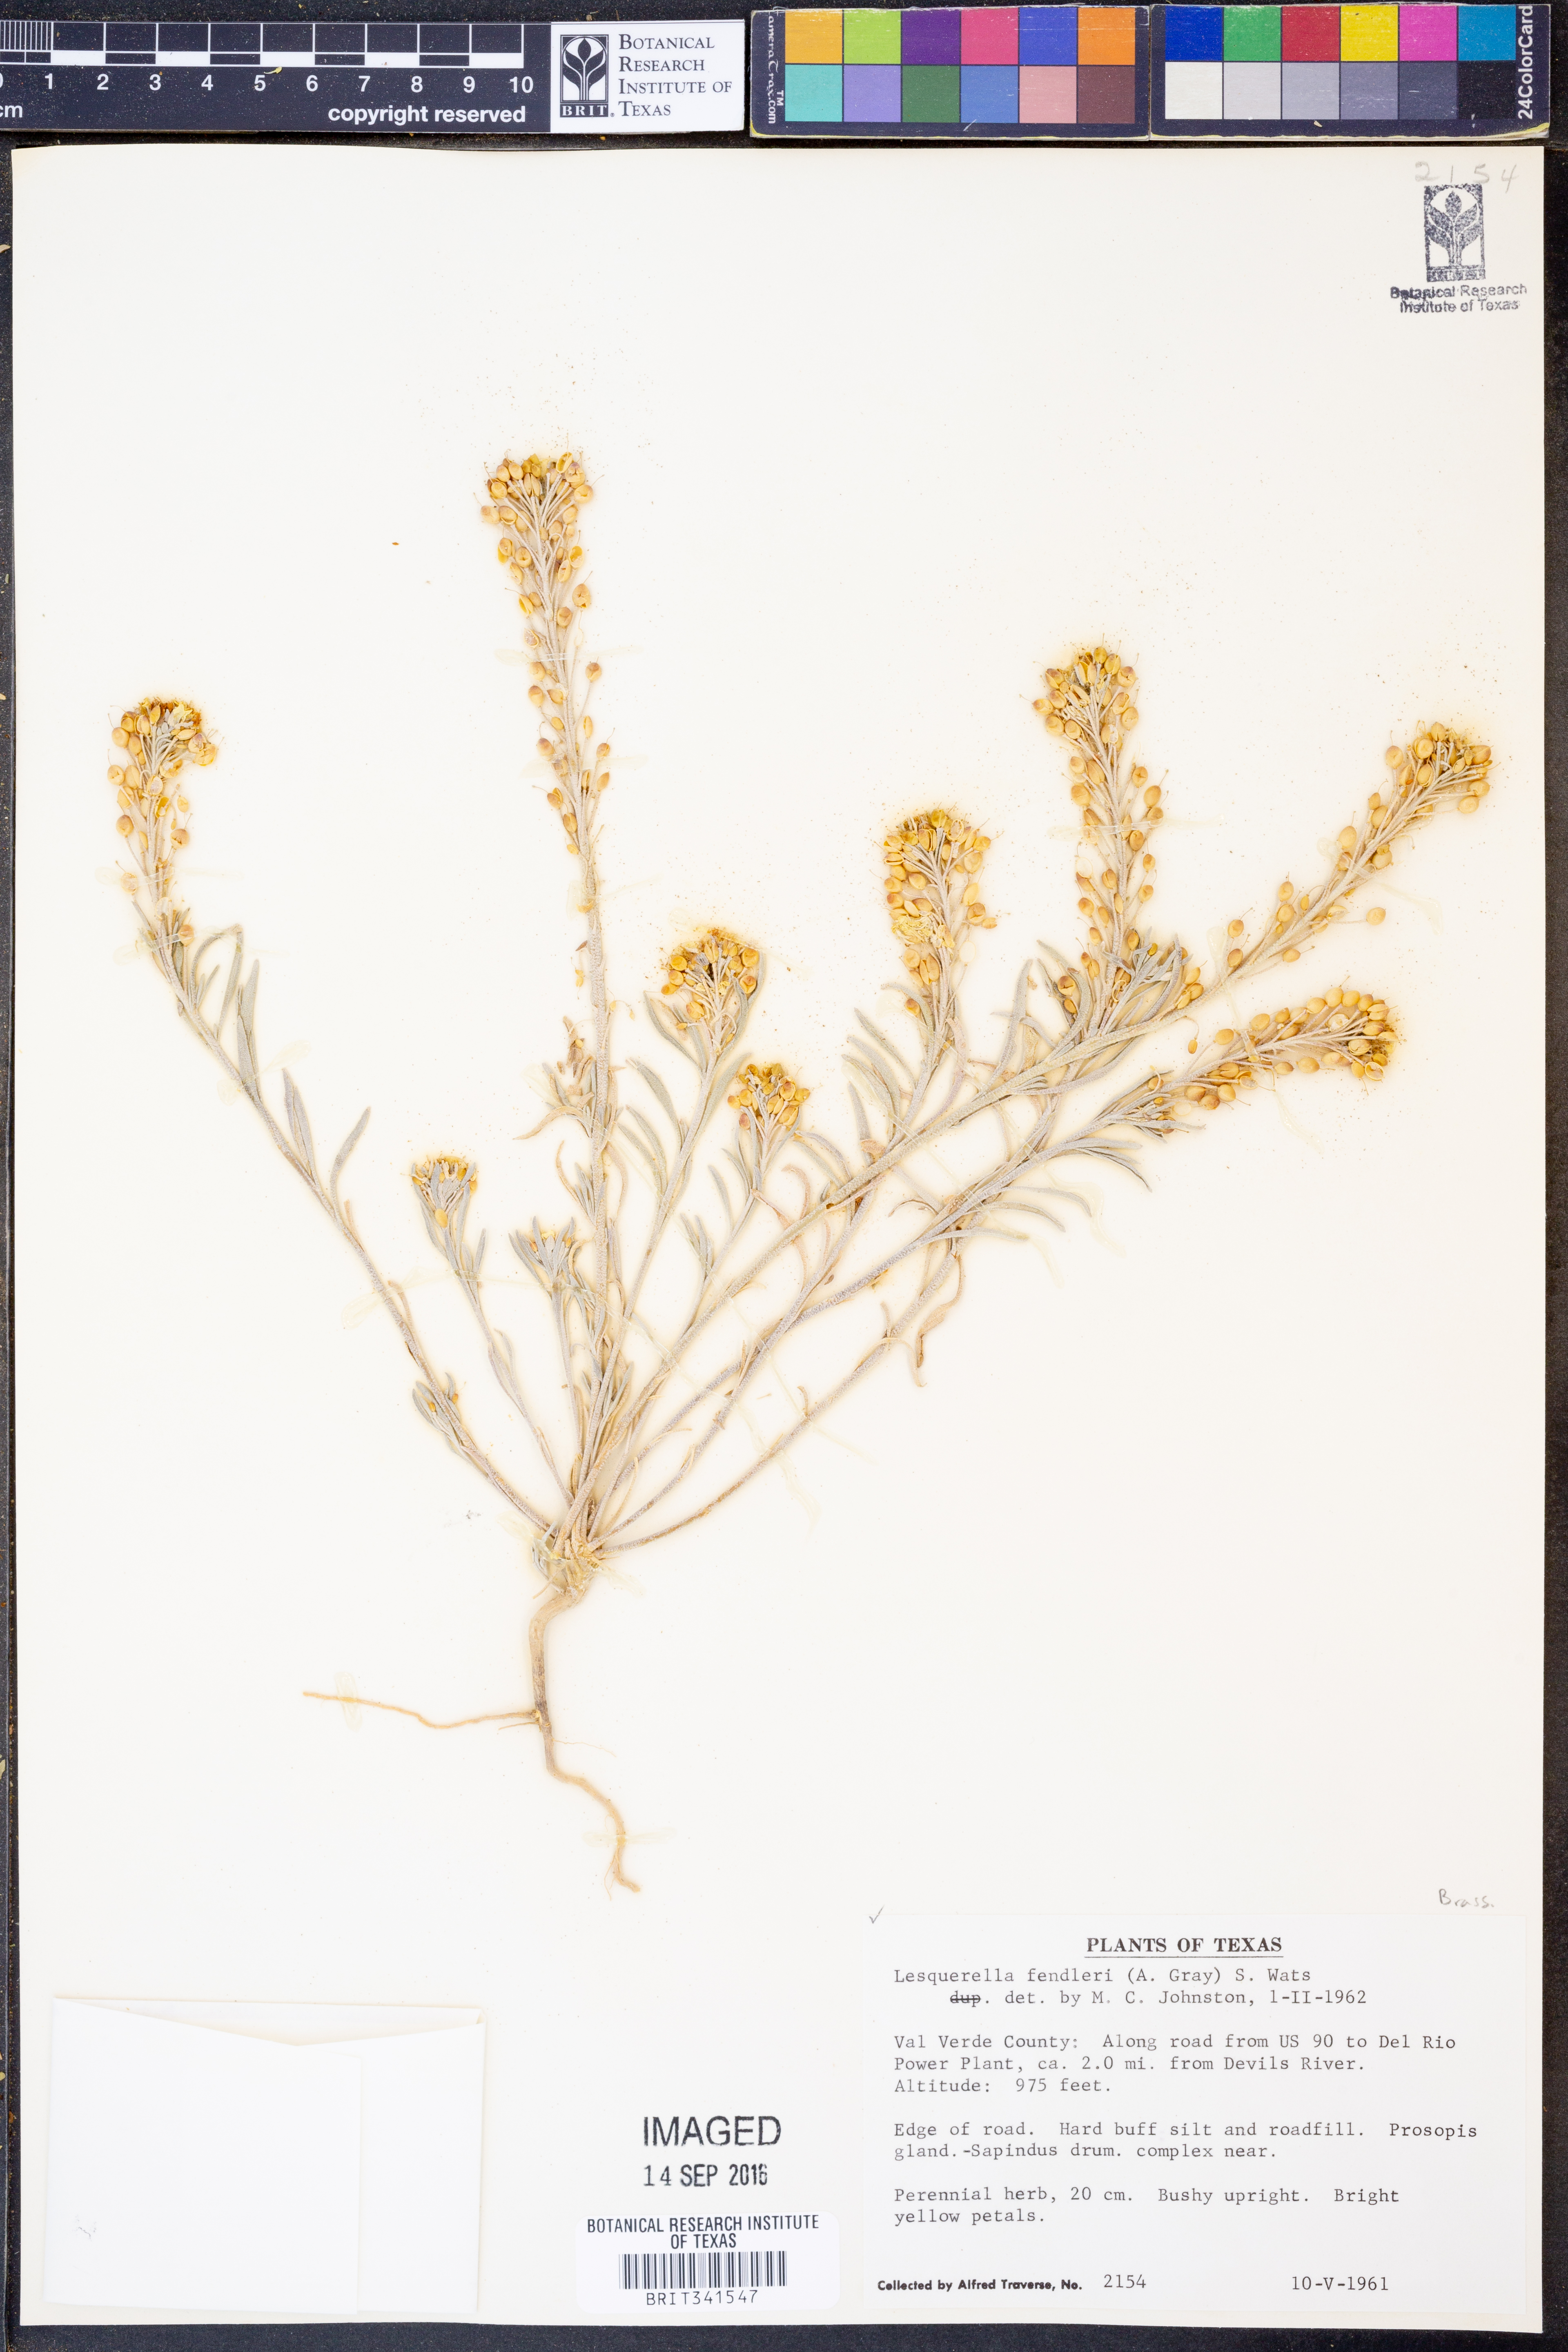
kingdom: Plantae
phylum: Tracheophyta
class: Magnoliopsida
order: Brassicales
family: Brassicaceae
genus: Physaria
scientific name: Physaria fendleri
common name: Fendler's bladderpod
